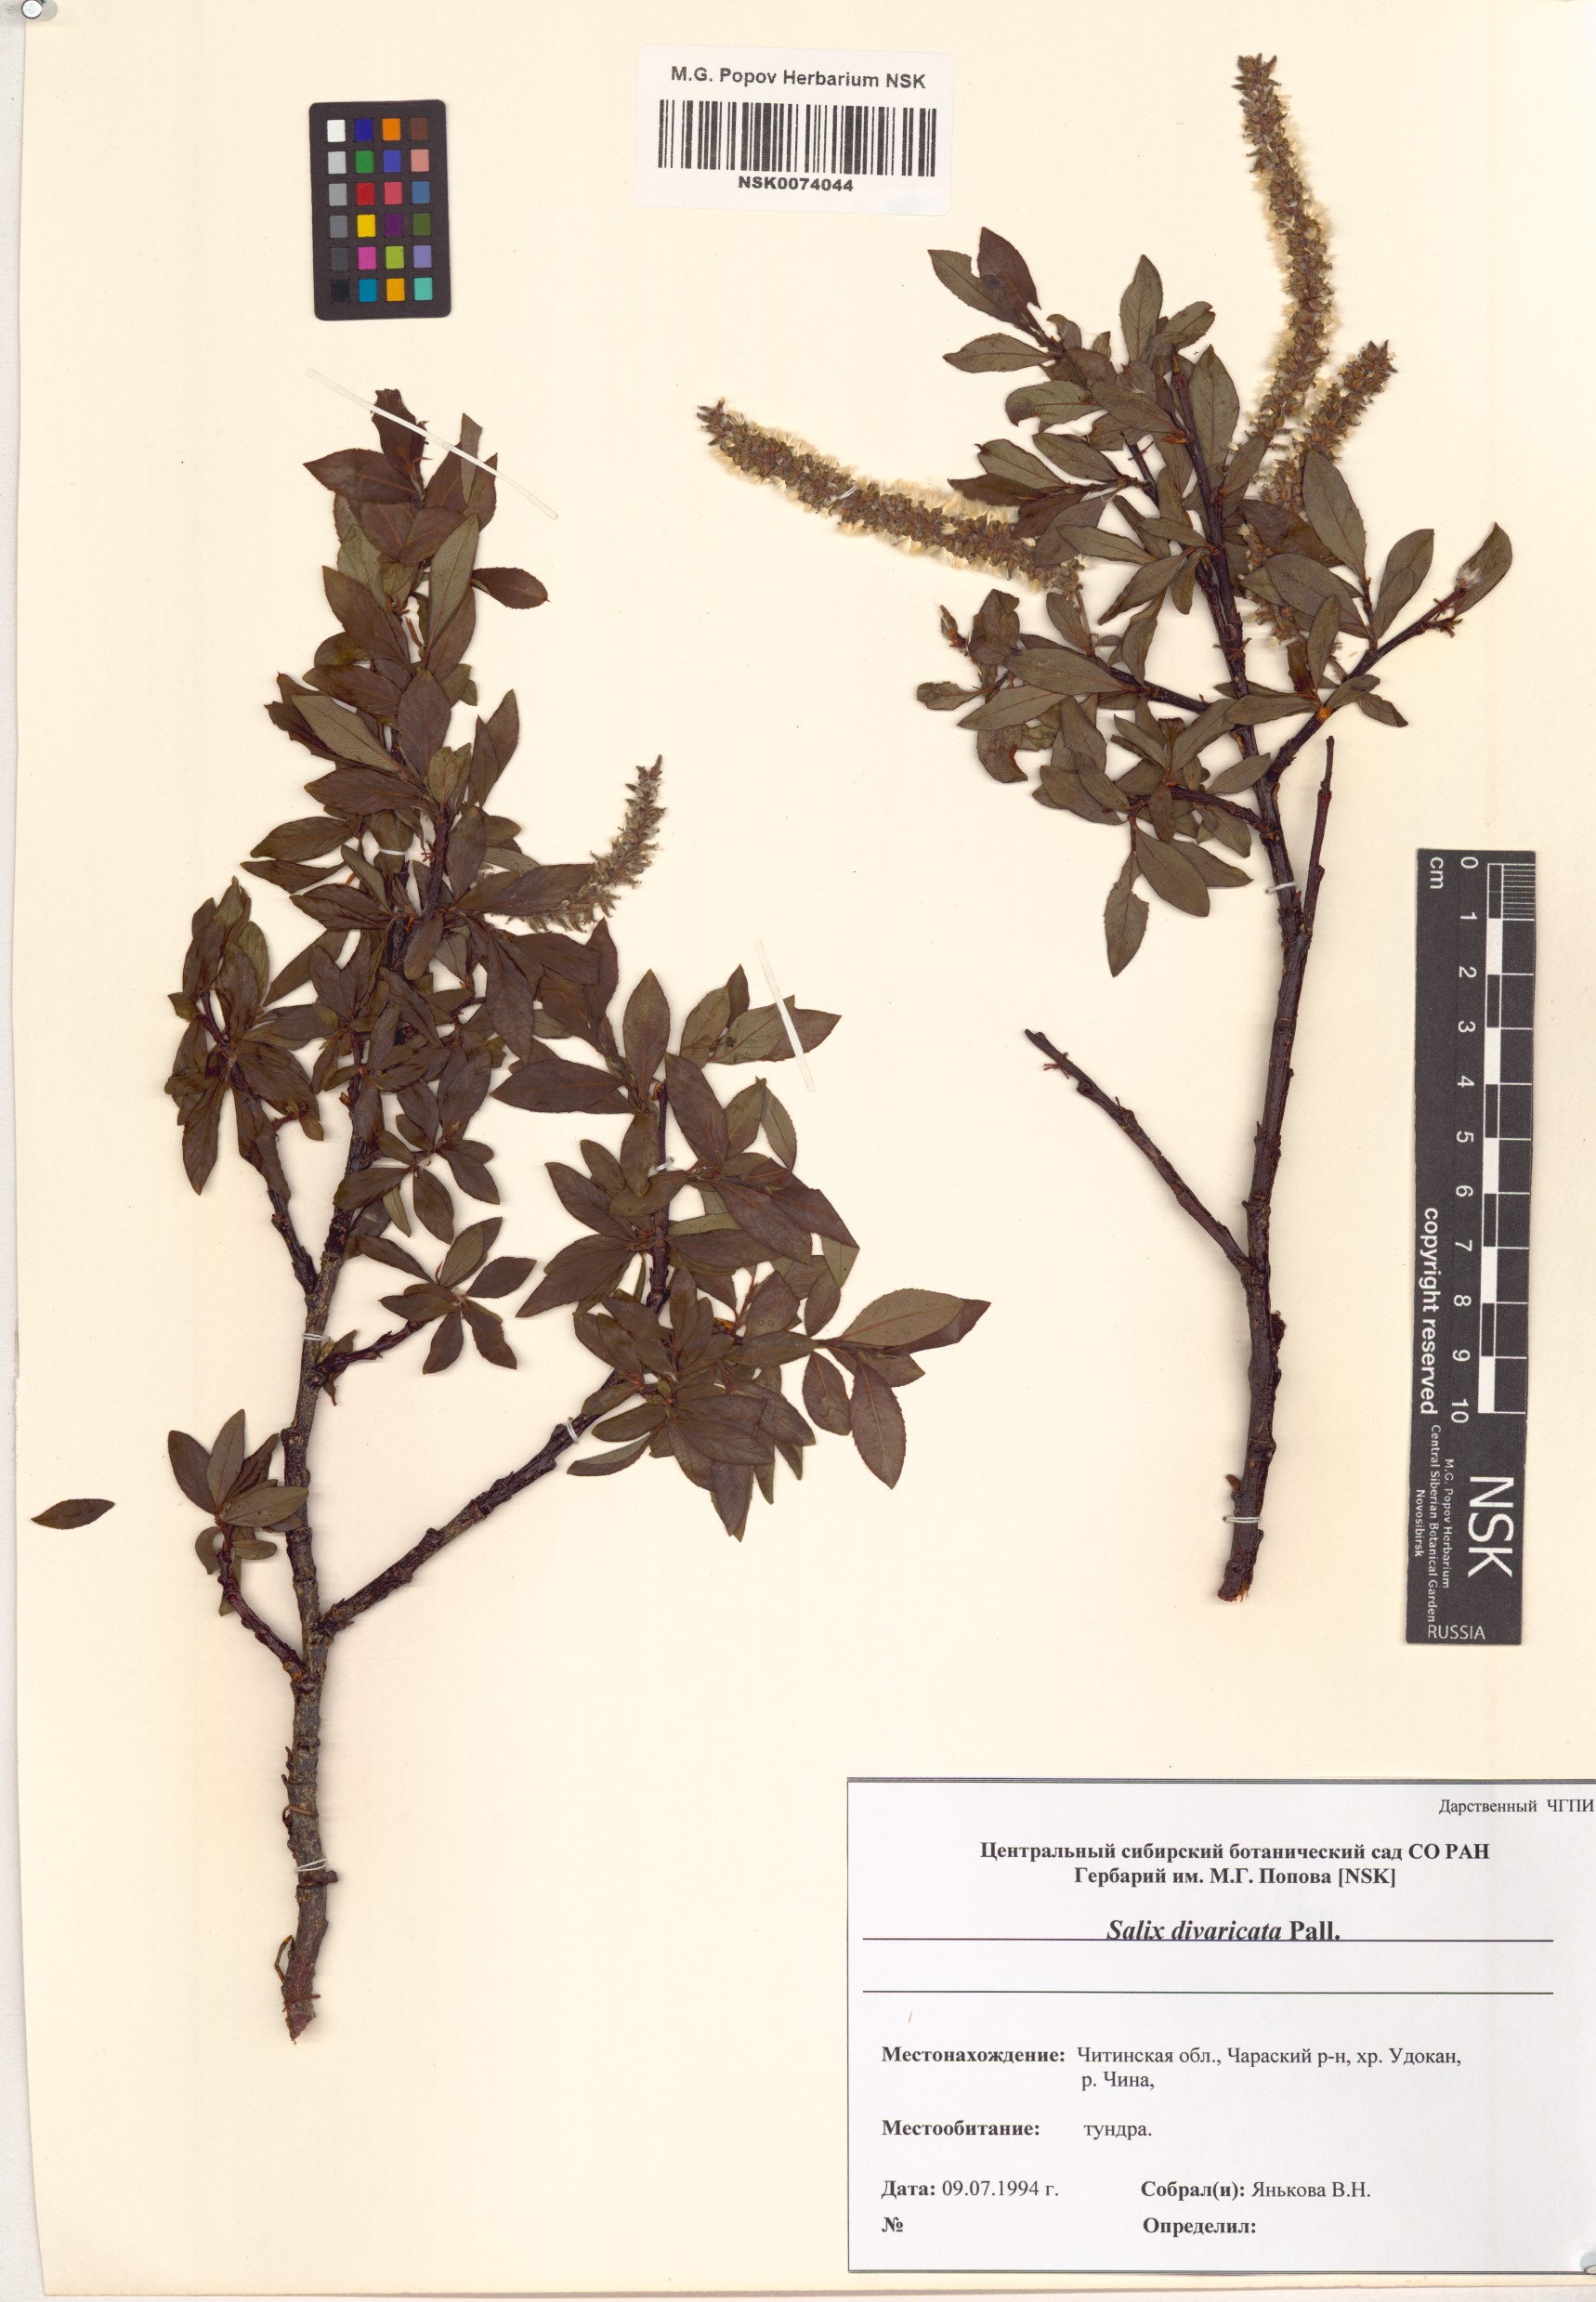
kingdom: Plantae
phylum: Tracheophyta
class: Magnoliopsida
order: Malpighiales
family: Salicaceae
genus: Salix
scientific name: Salix divaricata
